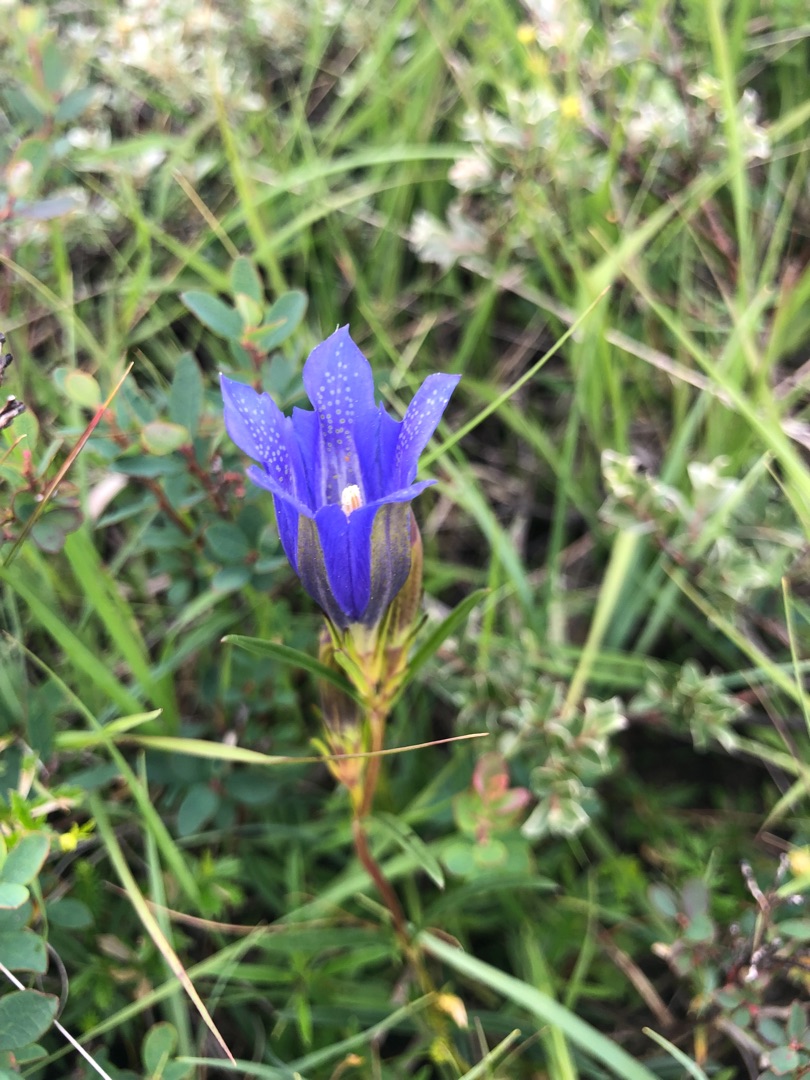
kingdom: Plantae
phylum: Tracheophyta
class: Magnoliopsida
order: Gentianales
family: Gentianaceae
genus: Gentiana
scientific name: Gentiana pneumonanthe
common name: Klokke-ensian
